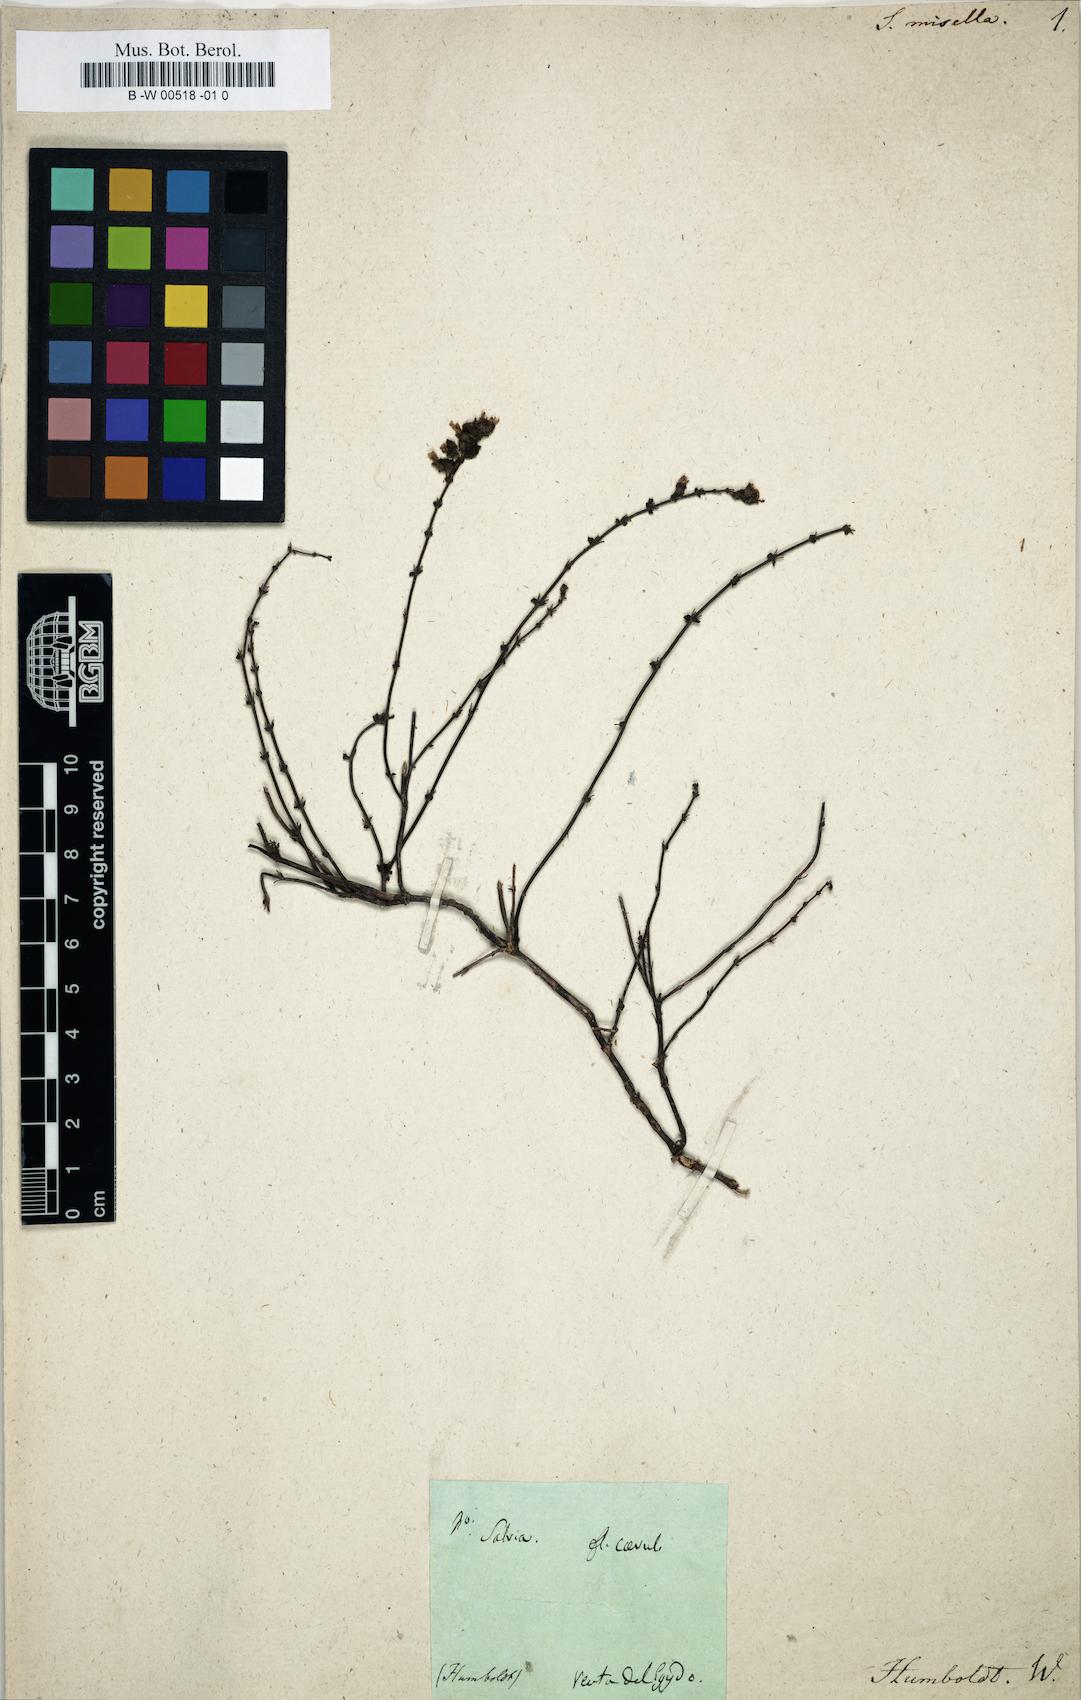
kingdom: Plantae
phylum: Tracheophyta
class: Magnoliopsida
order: Lamiales
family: Lamiaceae
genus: Salvia
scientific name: Salvia misella
